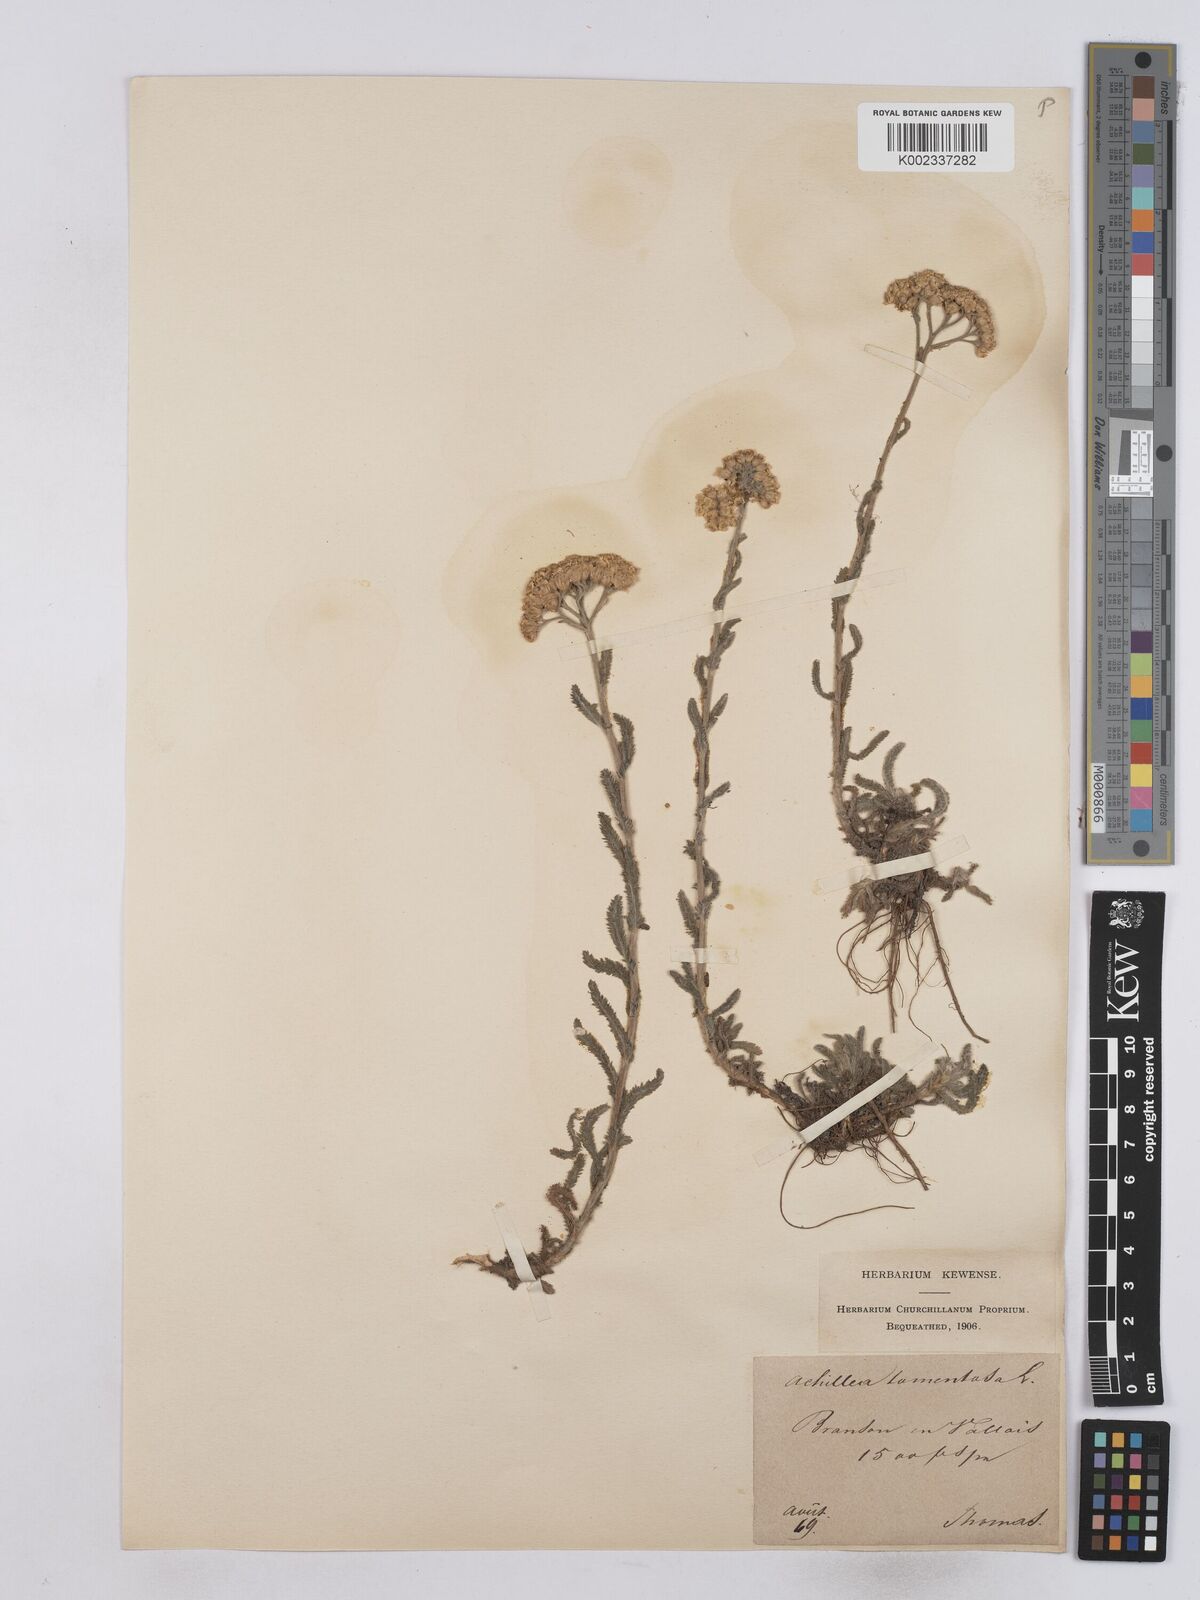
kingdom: Plantae
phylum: Tracheophyta
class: Magnoliopsida
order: Asterales
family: Asteraceae
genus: Achillea
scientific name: Achillea tomentosa
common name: Yellow milfoil
